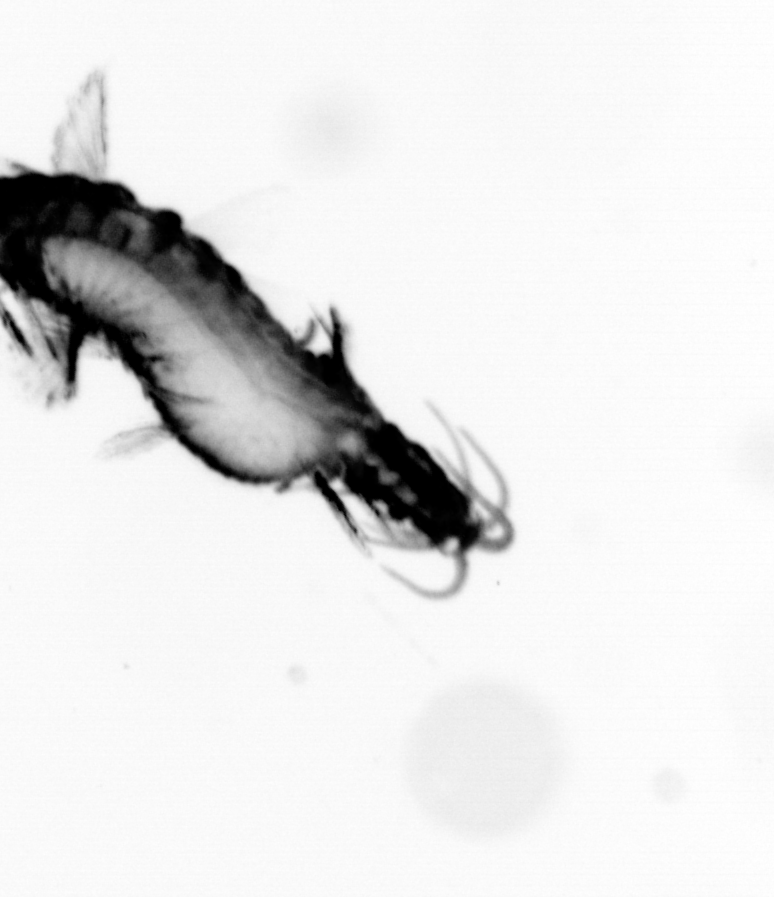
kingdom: Animalia
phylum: Annelida
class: Polychaeta
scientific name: Polychaeta
